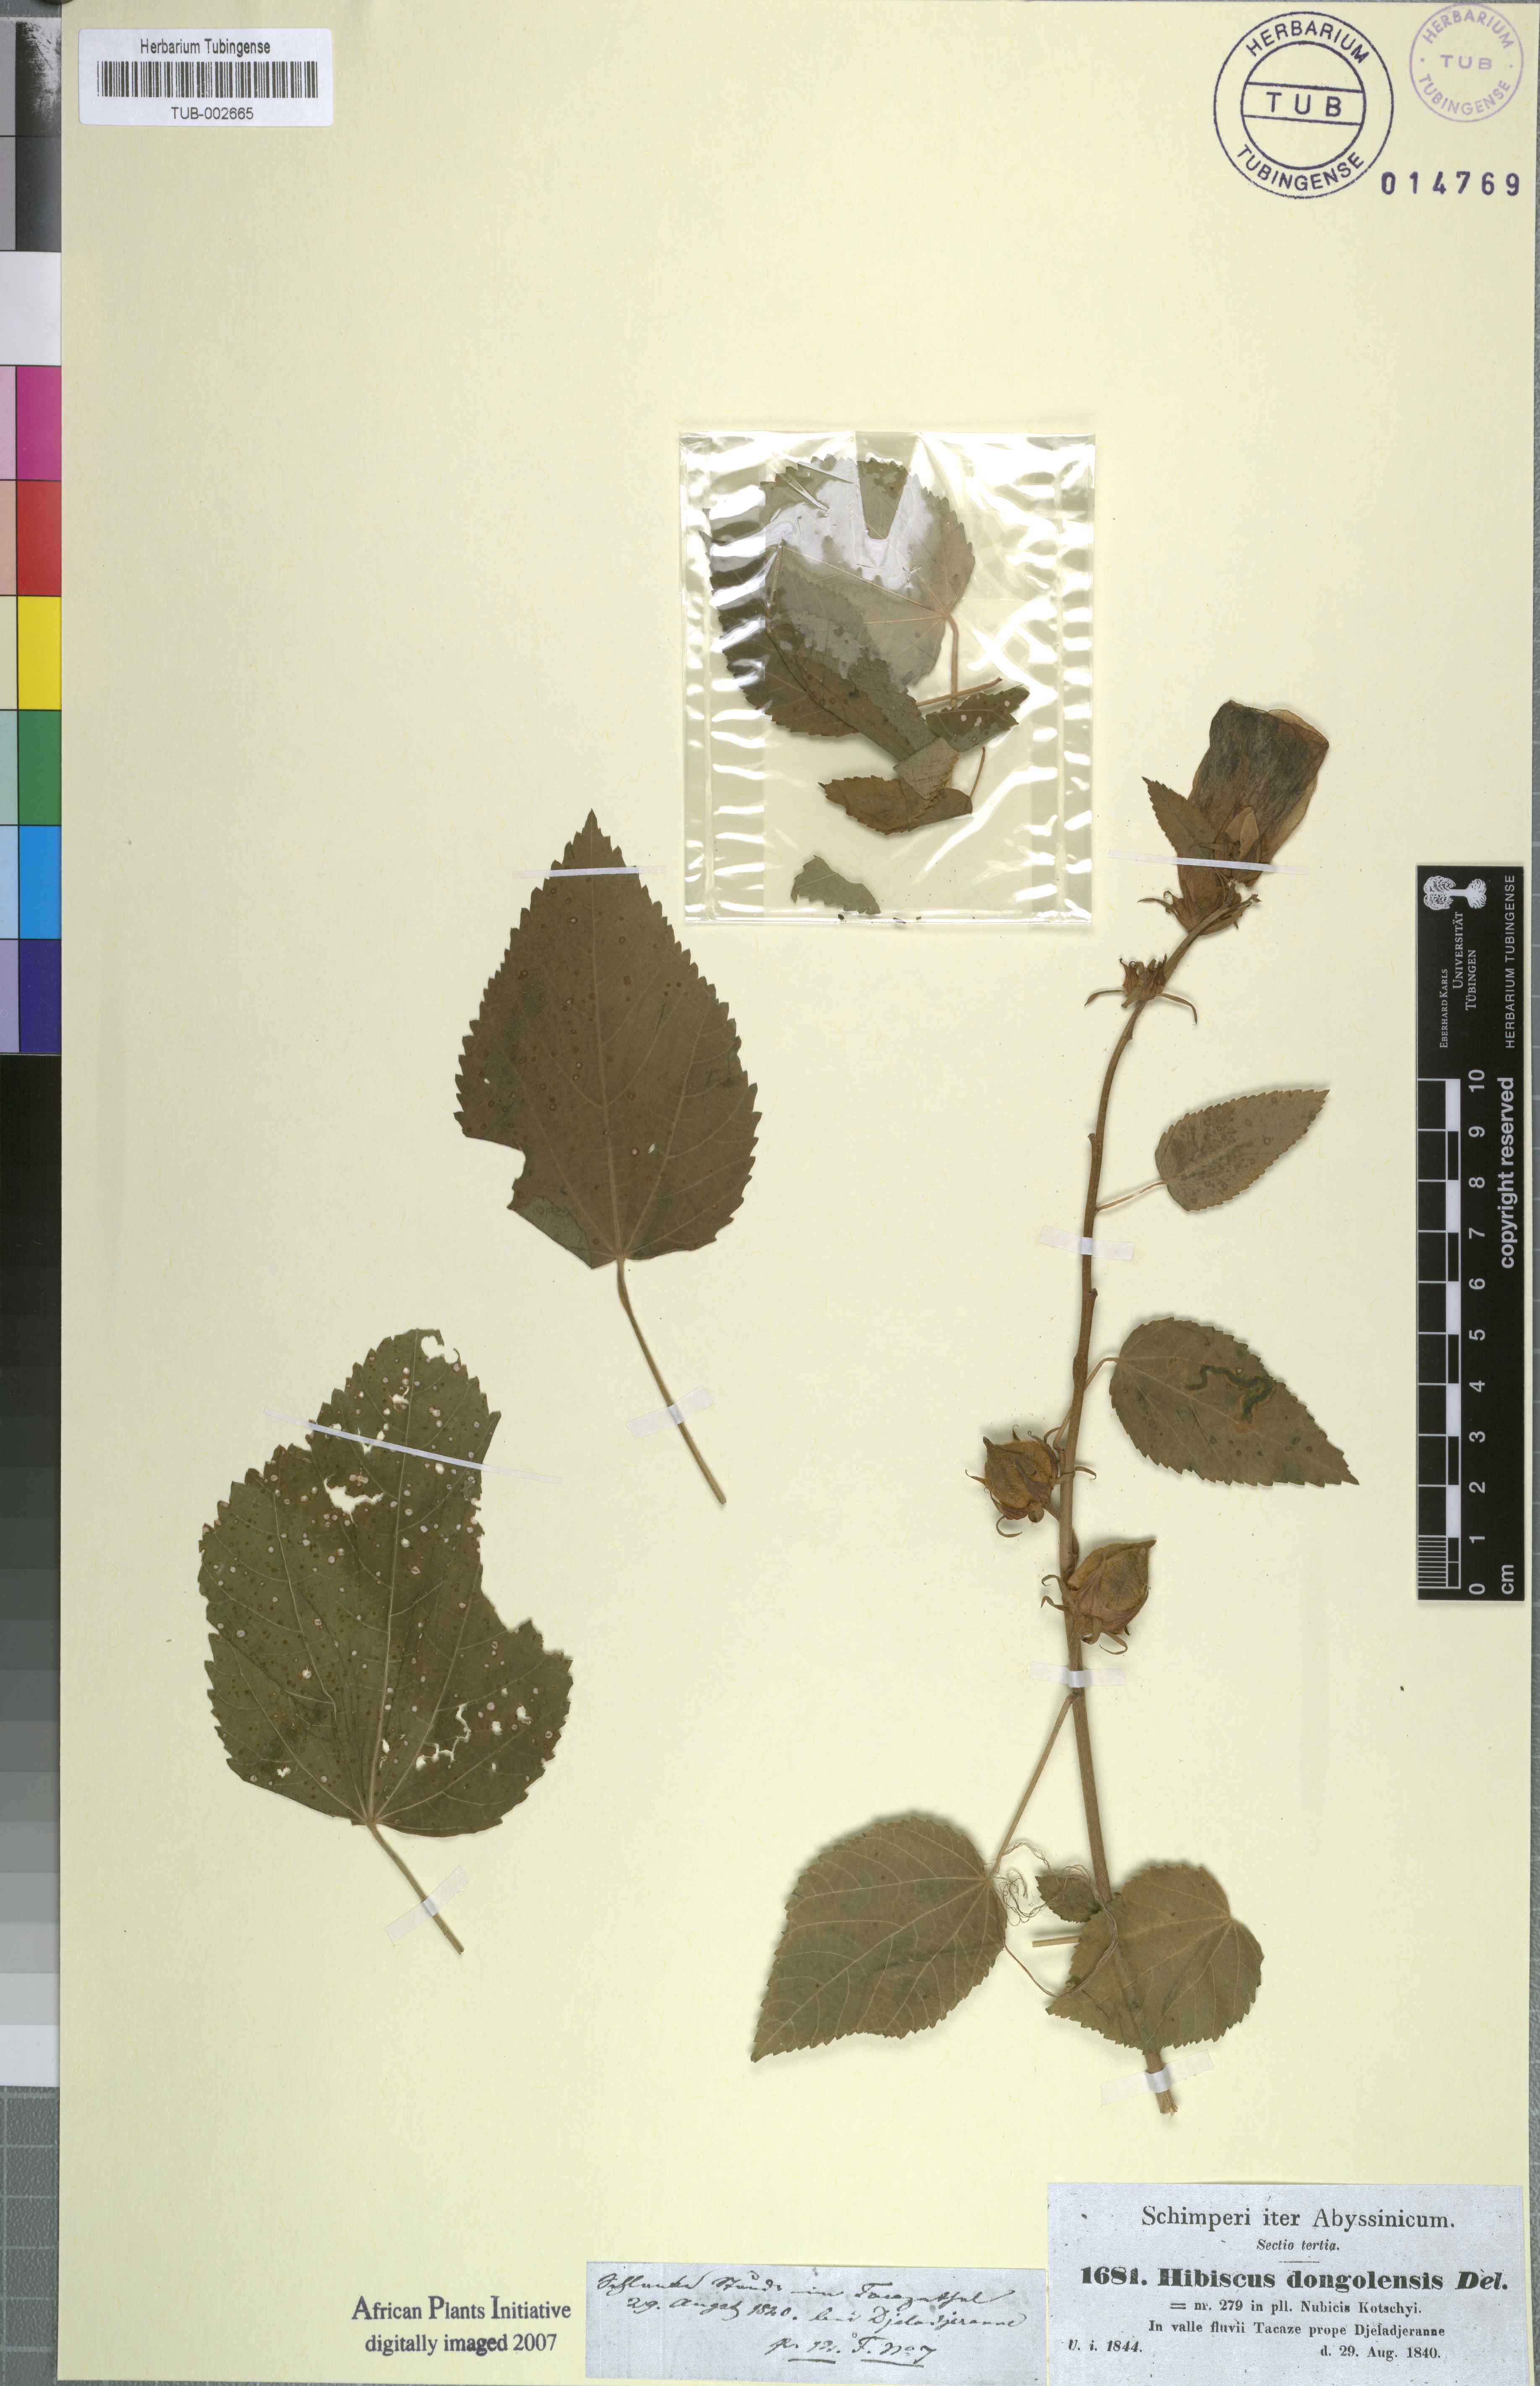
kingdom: Plantae
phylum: Tracheophyta
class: Magnoliopsida
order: Malvales
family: Malvaceae
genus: Hibiscus
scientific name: Hibiscus lunariifolius
